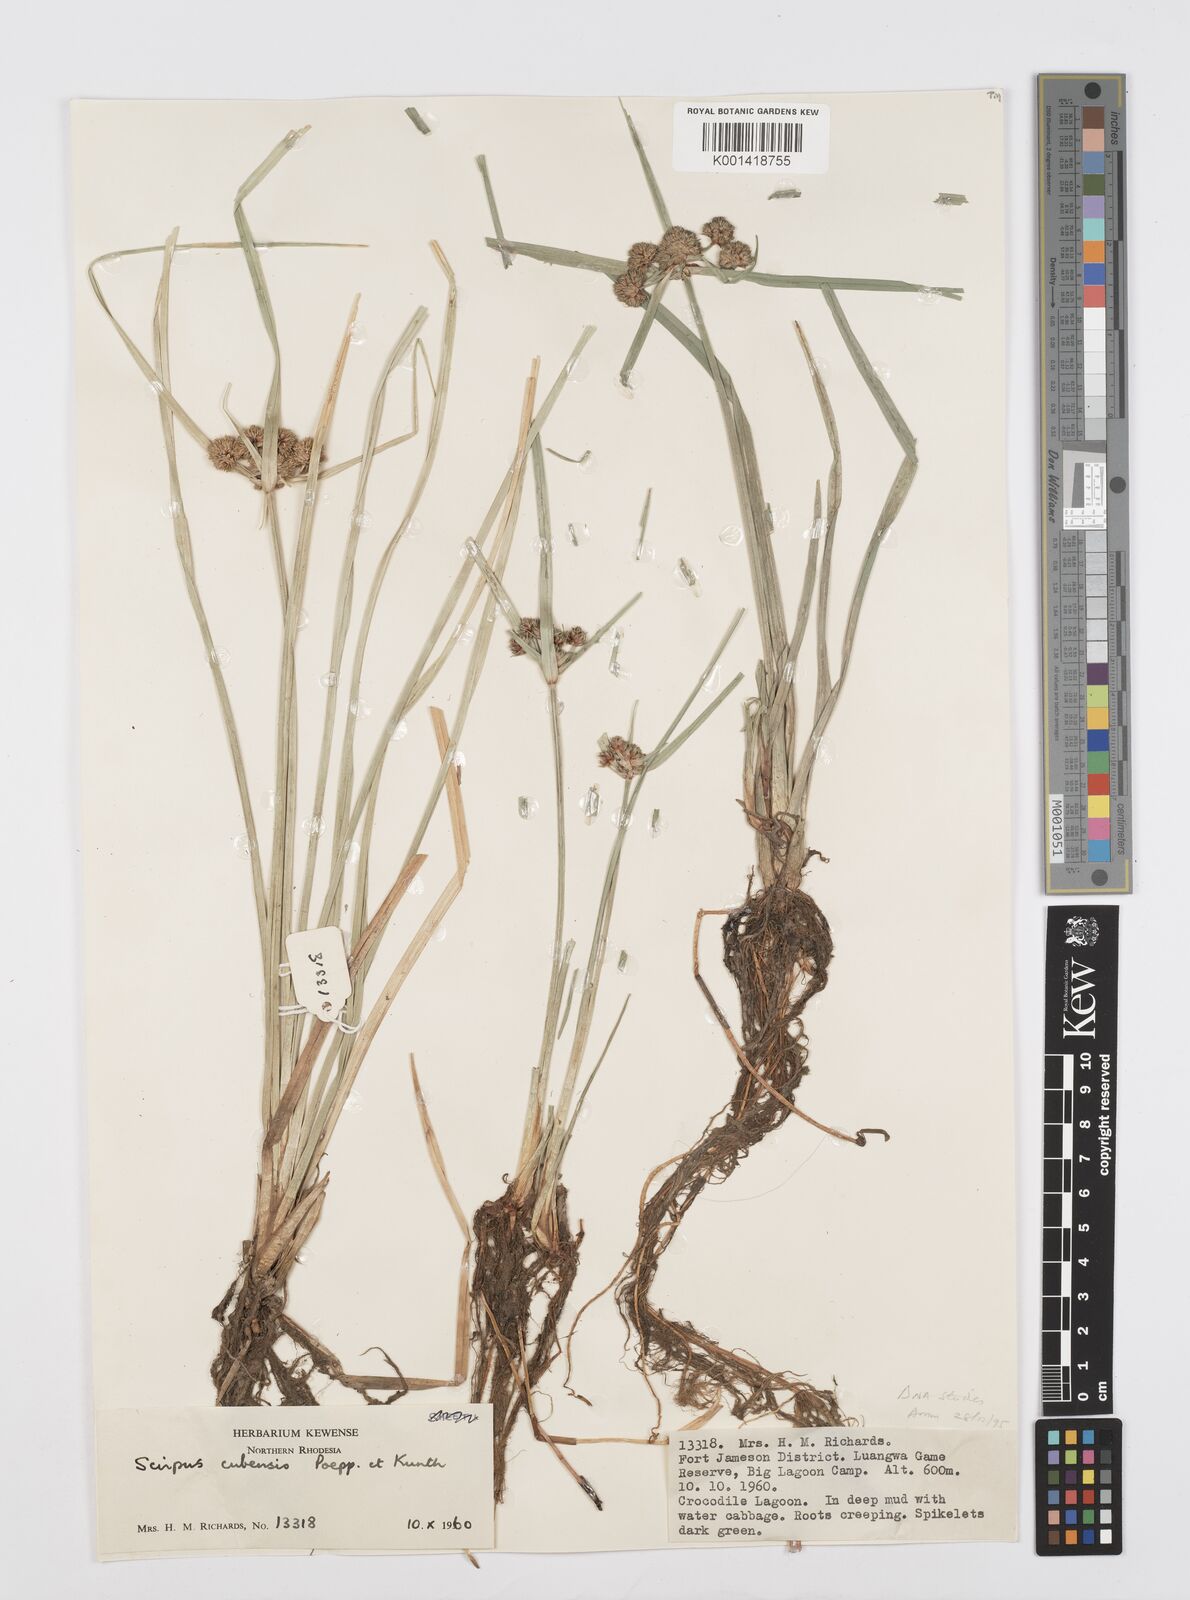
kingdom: Plantae
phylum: Tracheophyta
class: Liliopsida
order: Poales
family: Cyperaceae
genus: Cyperus
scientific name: Cyperus blepharoleptos
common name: Cuban bulrush
